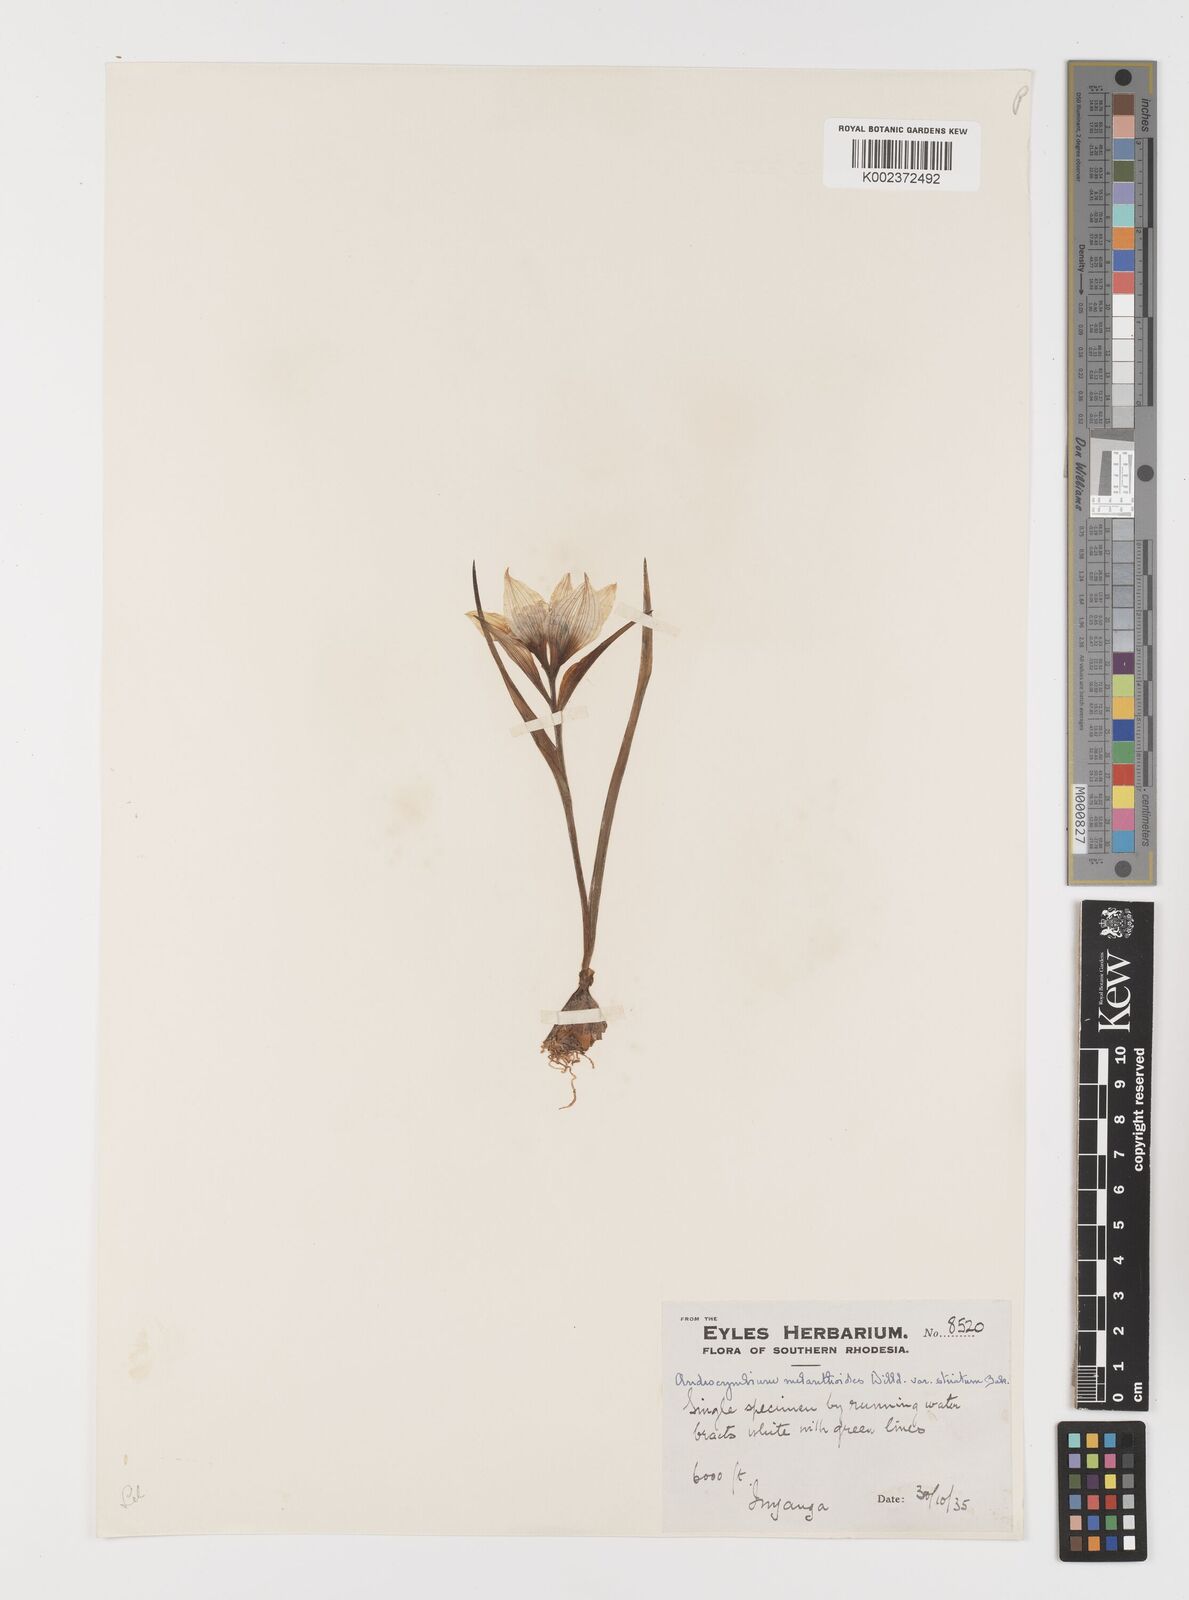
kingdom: Plantae
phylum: Tracheophyta
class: Liliopsida
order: Liliales
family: Colchicaceae
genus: Colchicum
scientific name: Colchicum striatum
